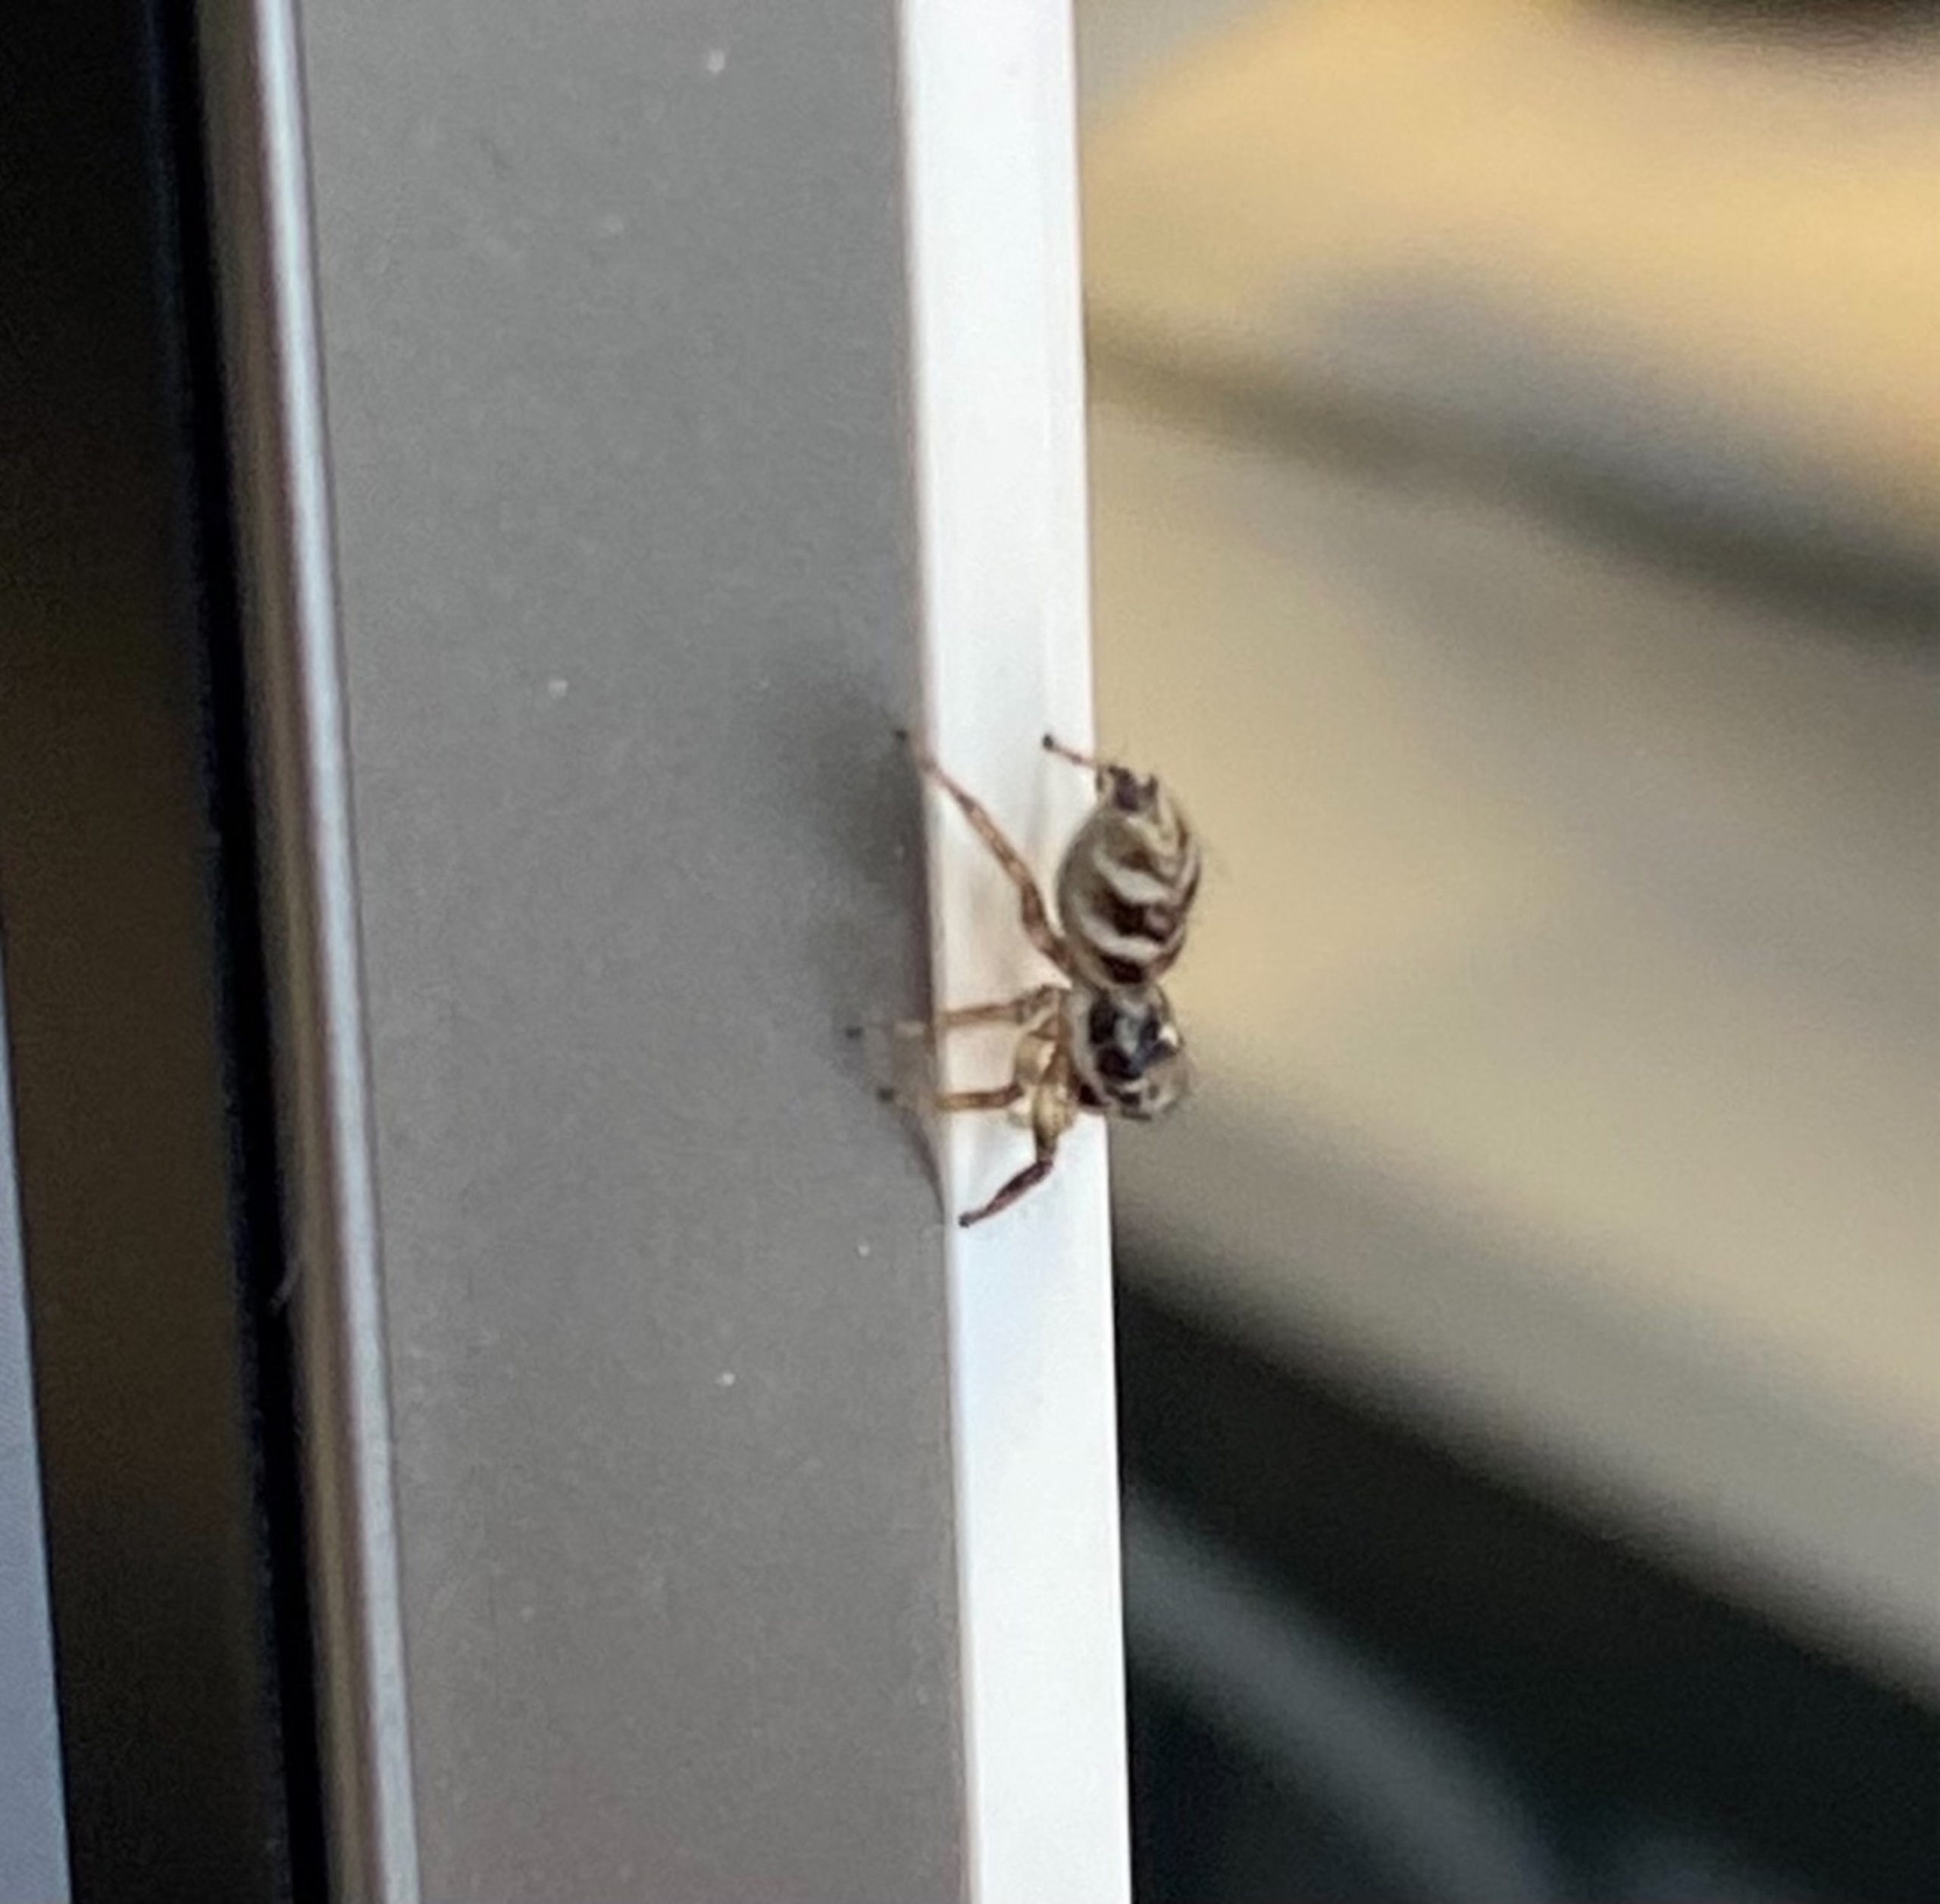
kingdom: Animalia
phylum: Arthropoda
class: Arachnida
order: Araneae
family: Salticidae
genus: Salticus
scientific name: Salticus scenicus
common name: Almindelig zebraedderkop
